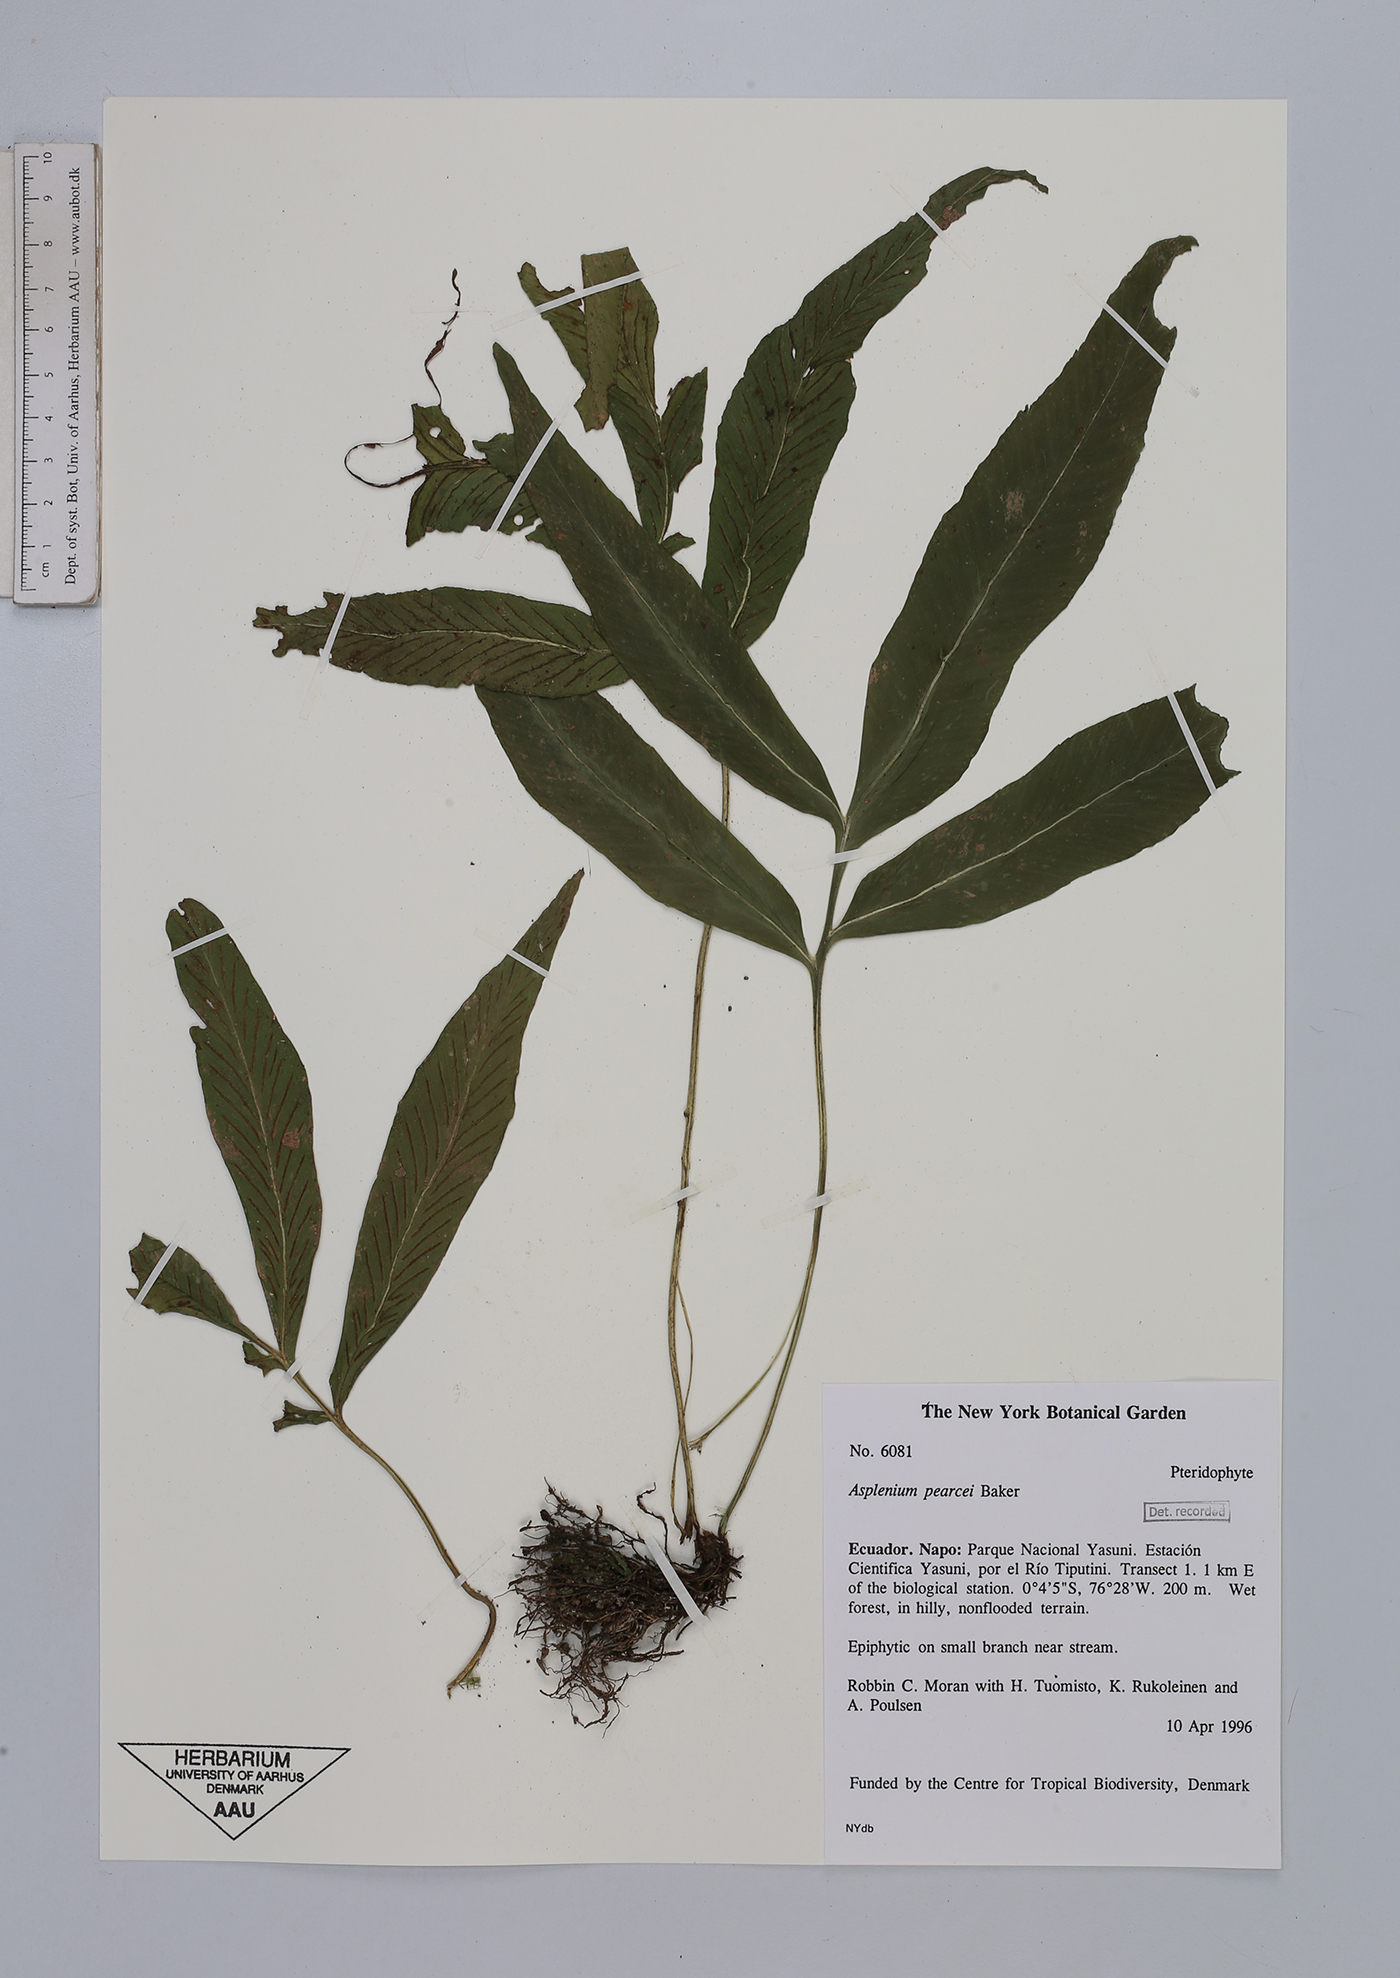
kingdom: Plantae
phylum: Tracheophyta
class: Polypodiopsida
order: Polypodiales
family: Aspleniaceae
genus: Asplenium
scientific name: Asplenium pearcei
